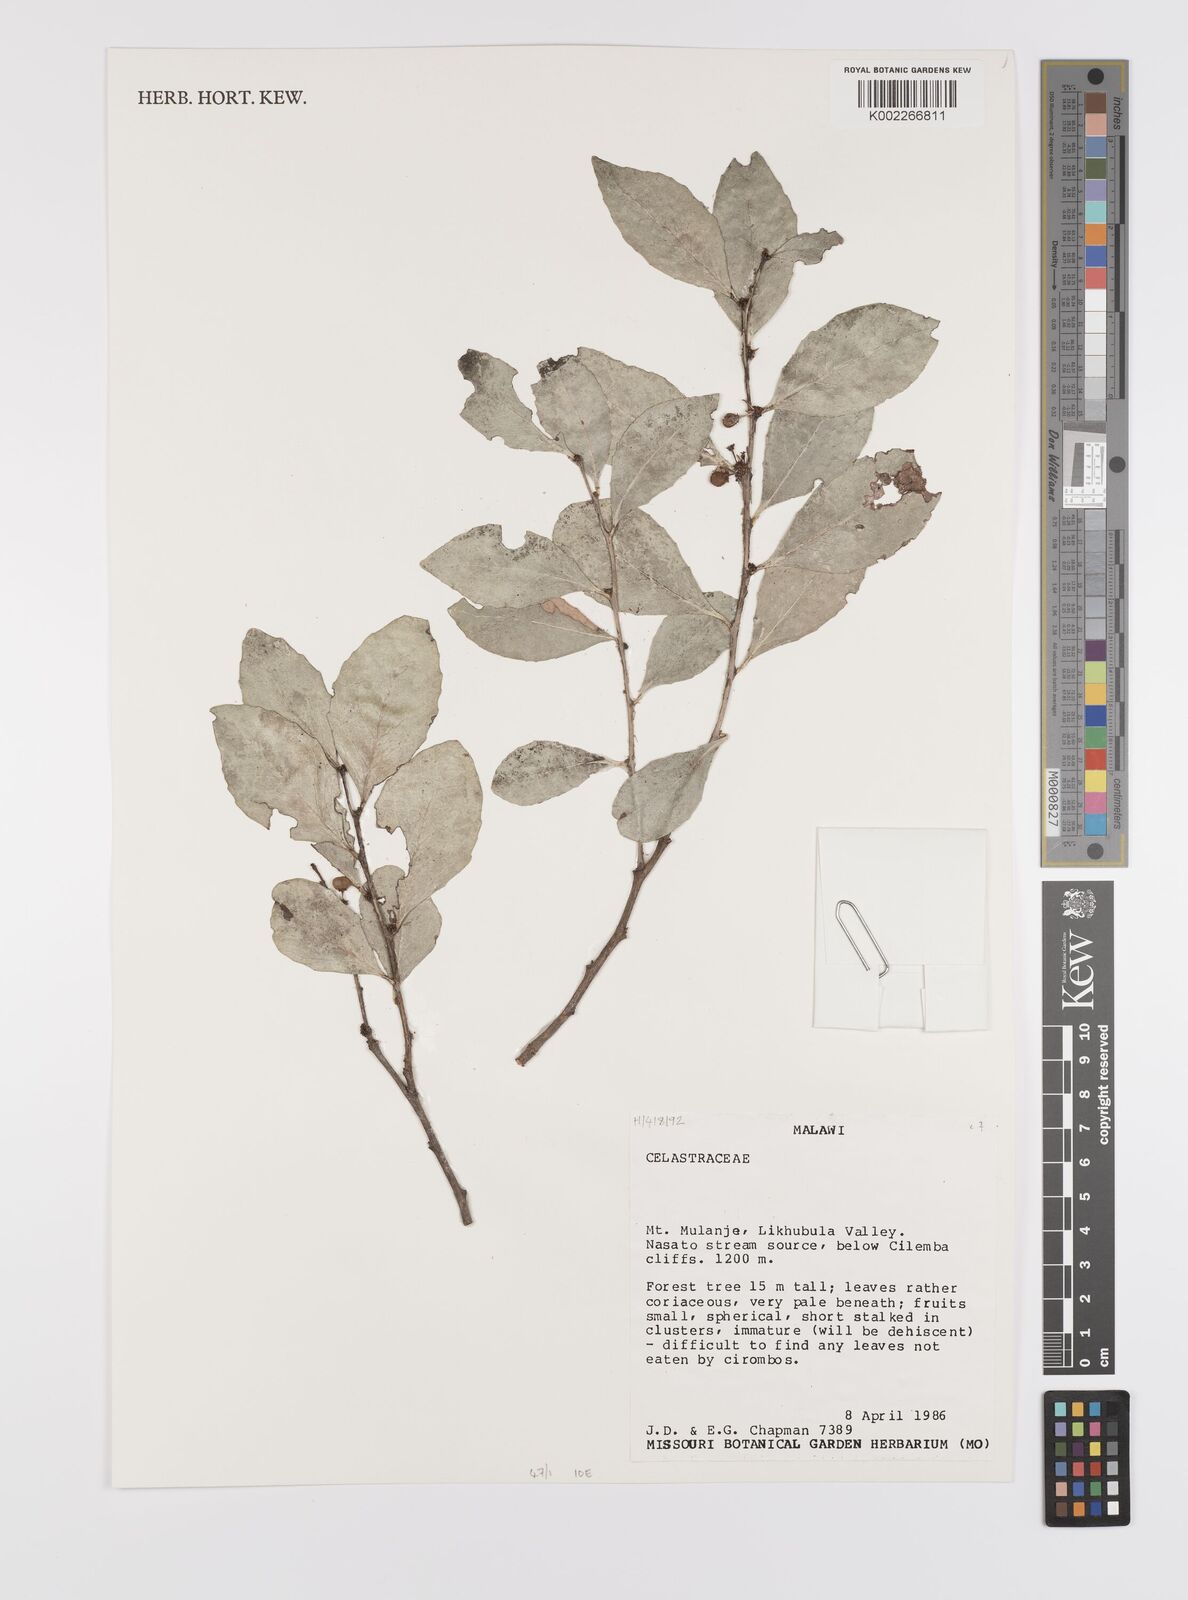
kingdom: Plantae
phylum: Tracheophyta
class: Magnoliopsida
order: Celastrales
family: Celastraceae
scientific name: Celastraceae
